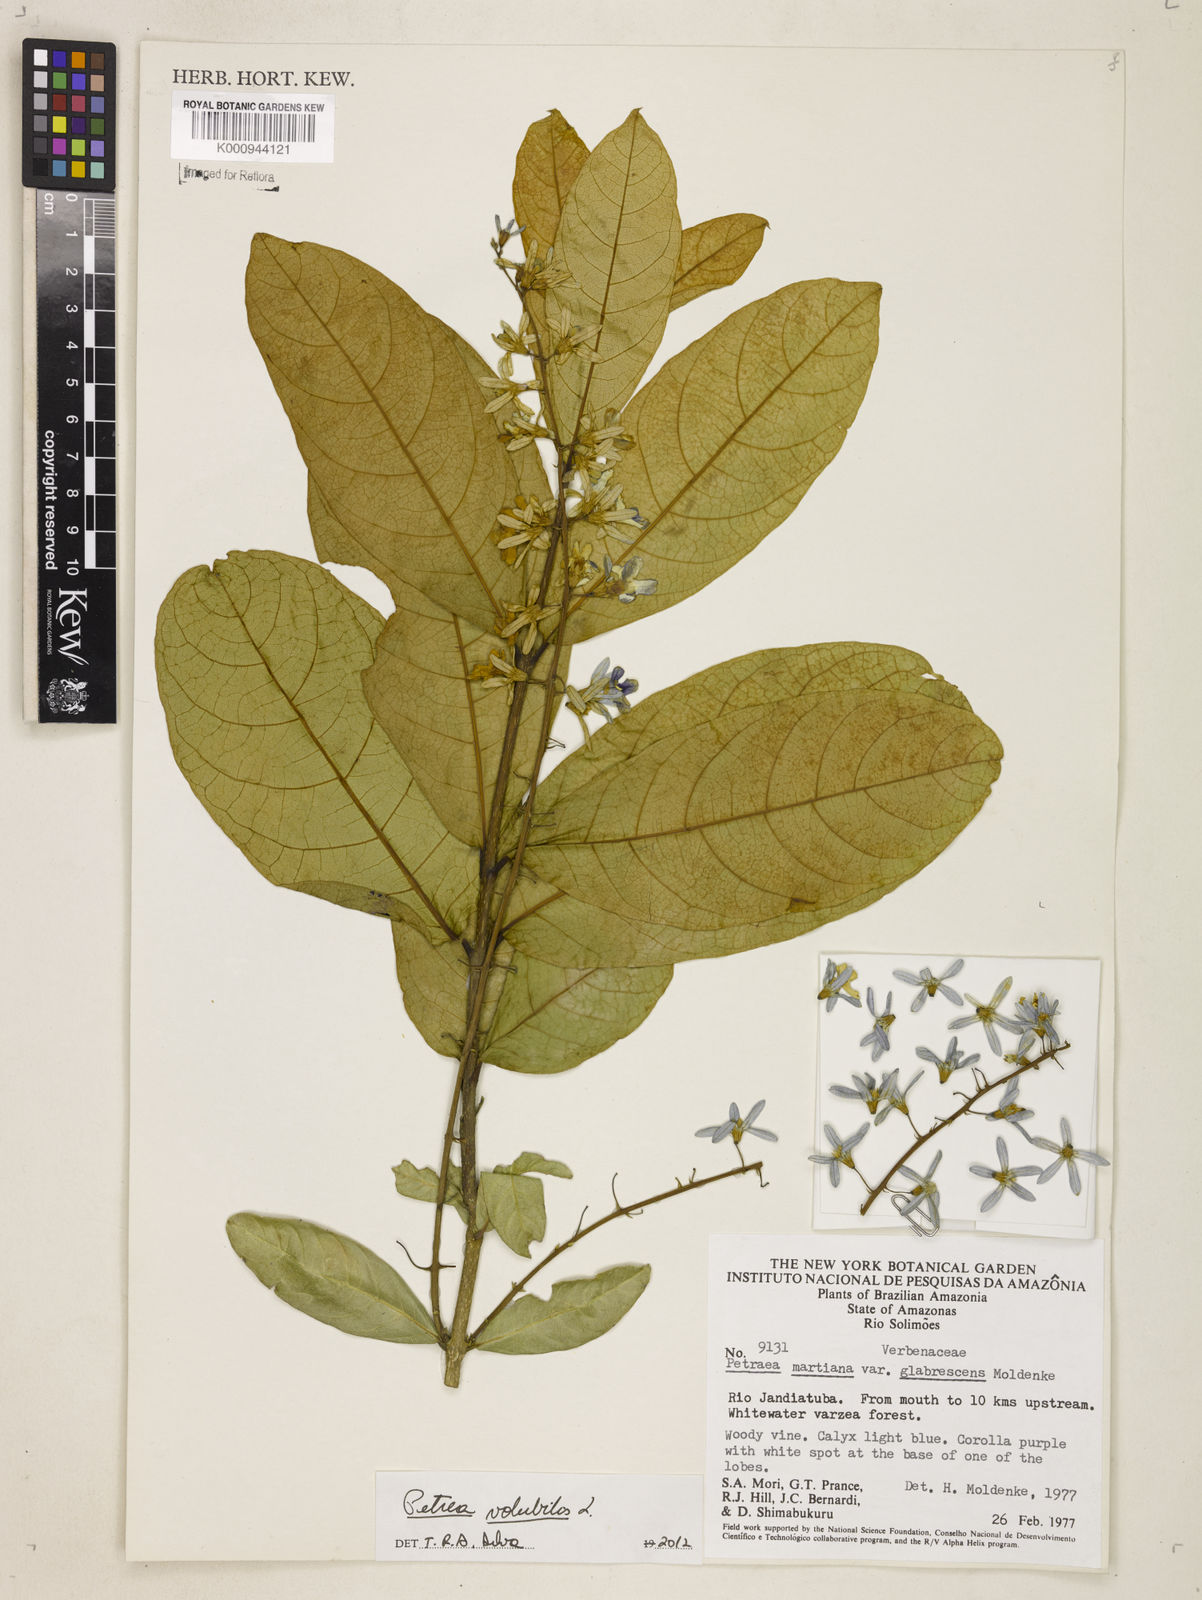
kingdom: Plantae
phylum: Tracheophyta
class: Magnoliopsida
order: Lamiales
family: Verbenaceae
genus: Petrea
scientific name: Petrea volubilis
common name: Queen's-wreath
